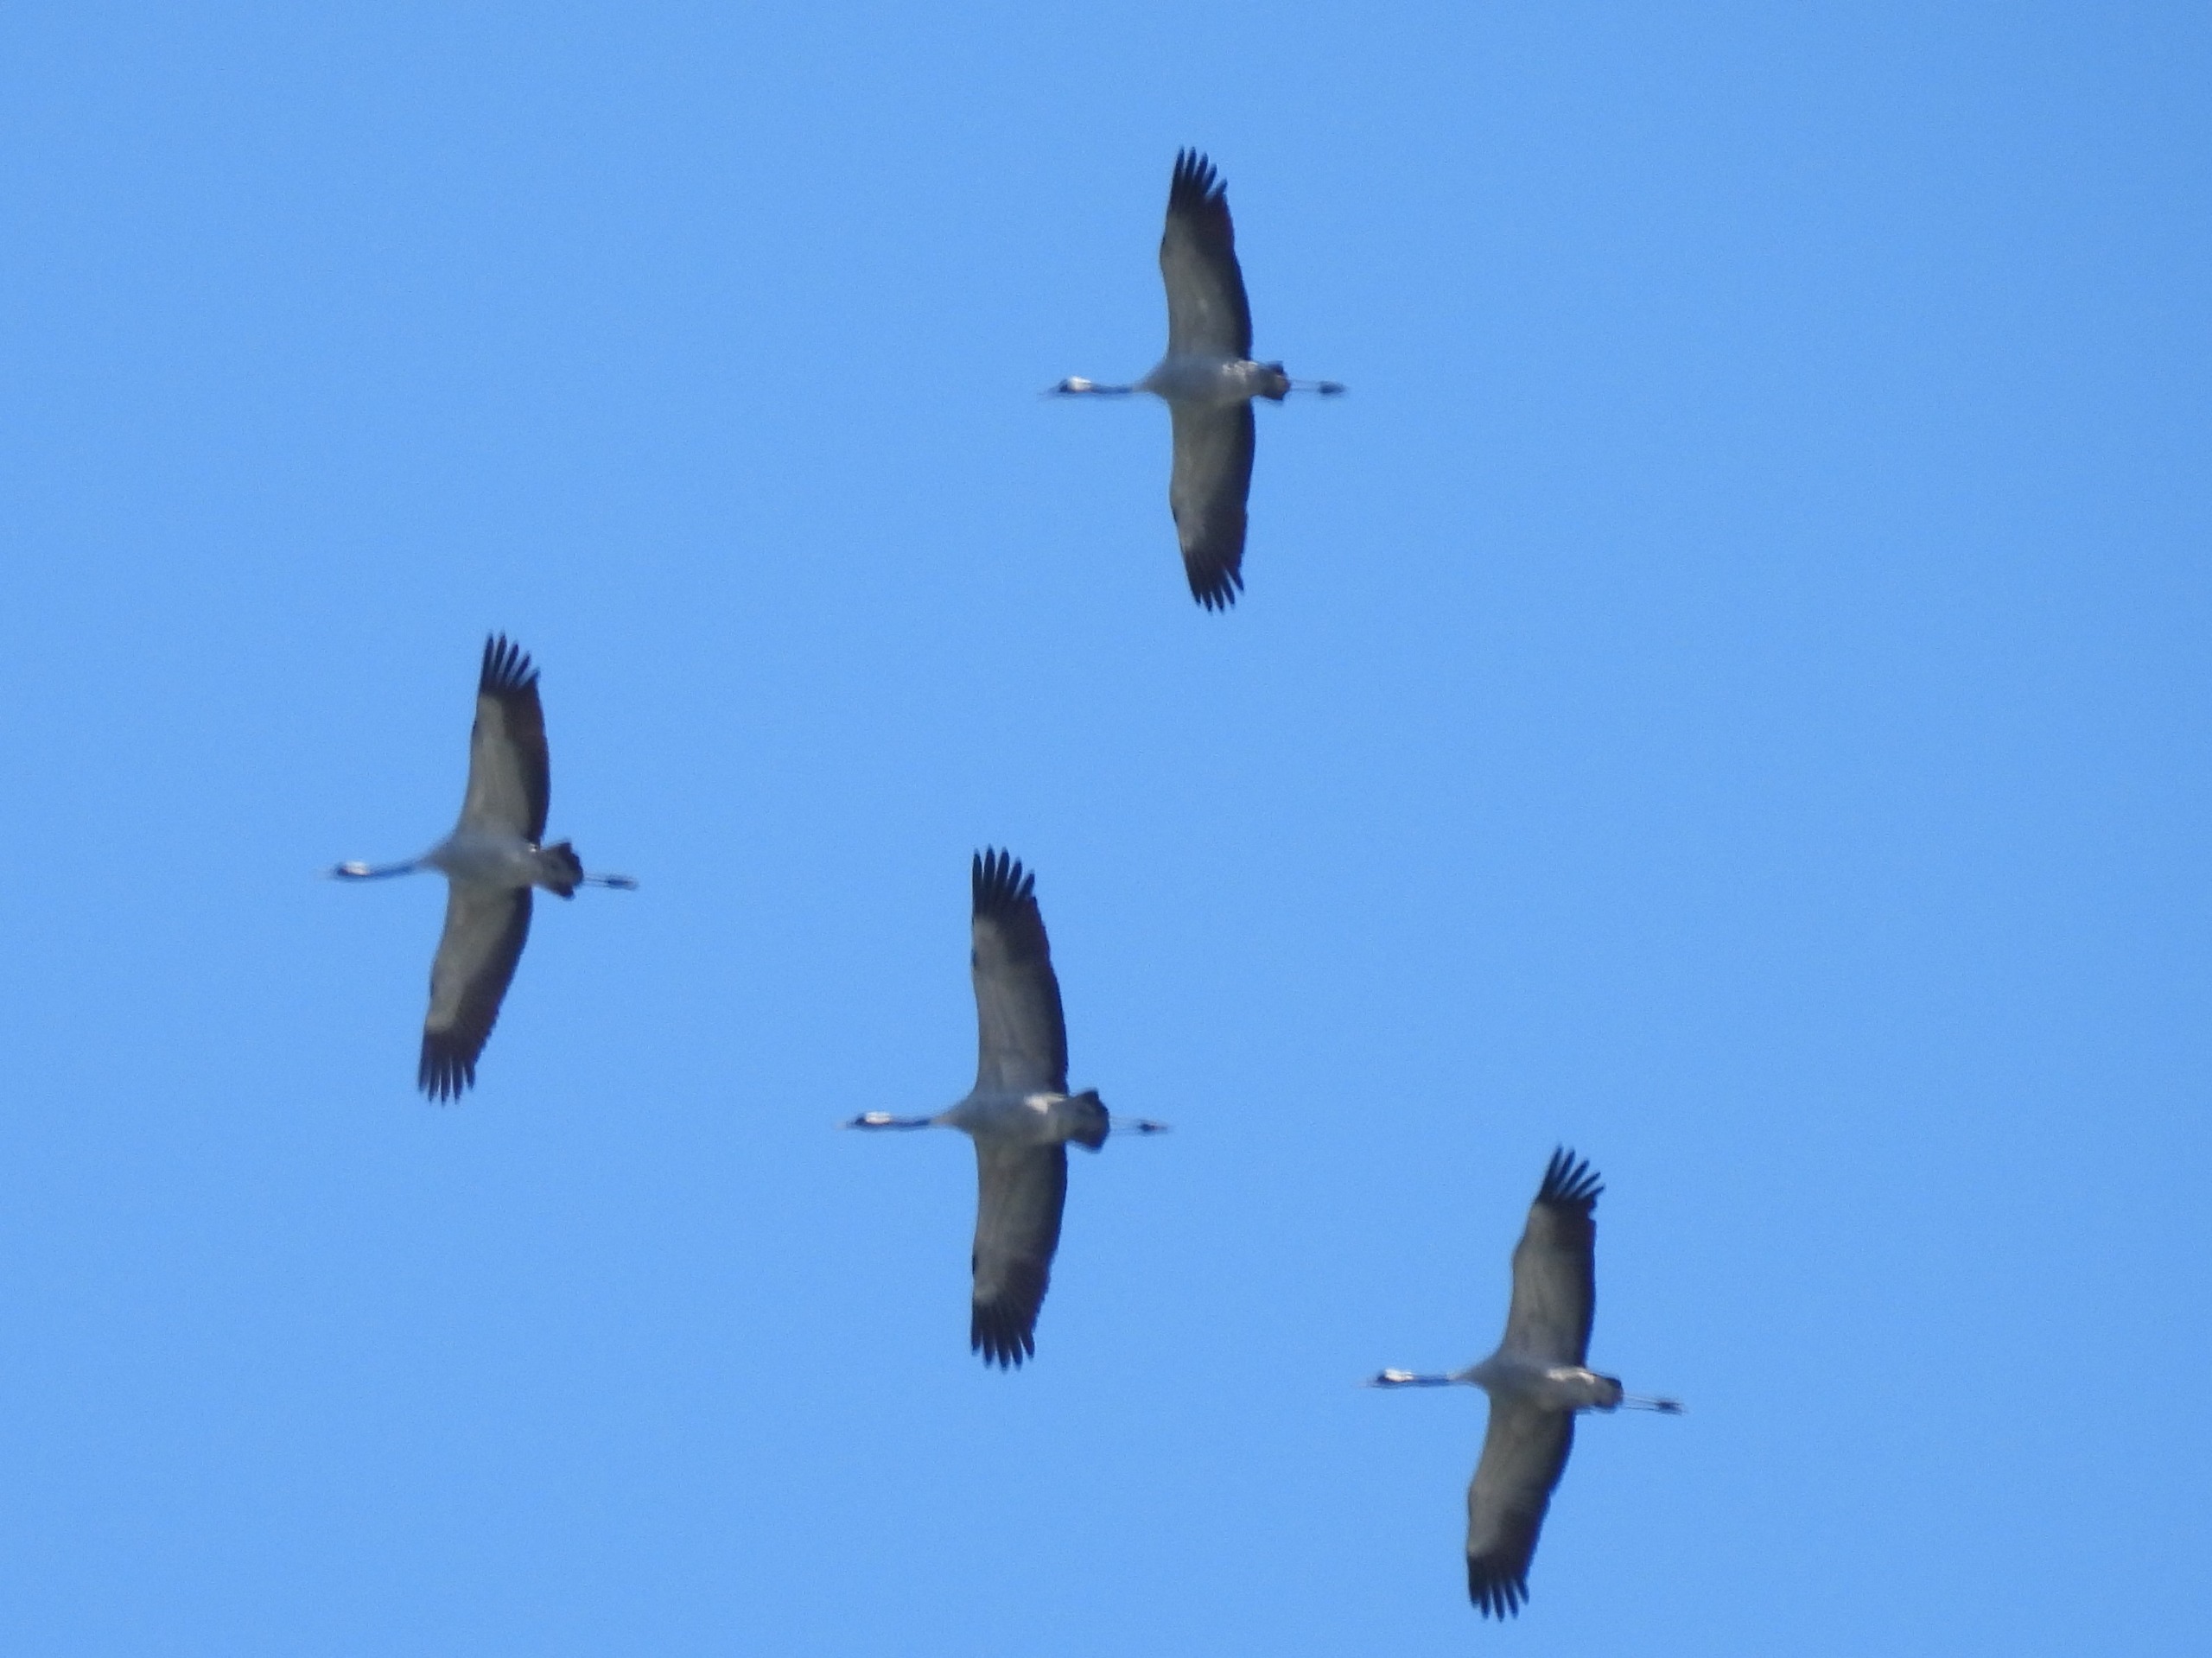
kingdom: Animalia
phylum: Chordata
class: Aves
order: Gruiformes
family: Gruidae
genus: Grus
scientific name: Grus grus
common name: Trane
